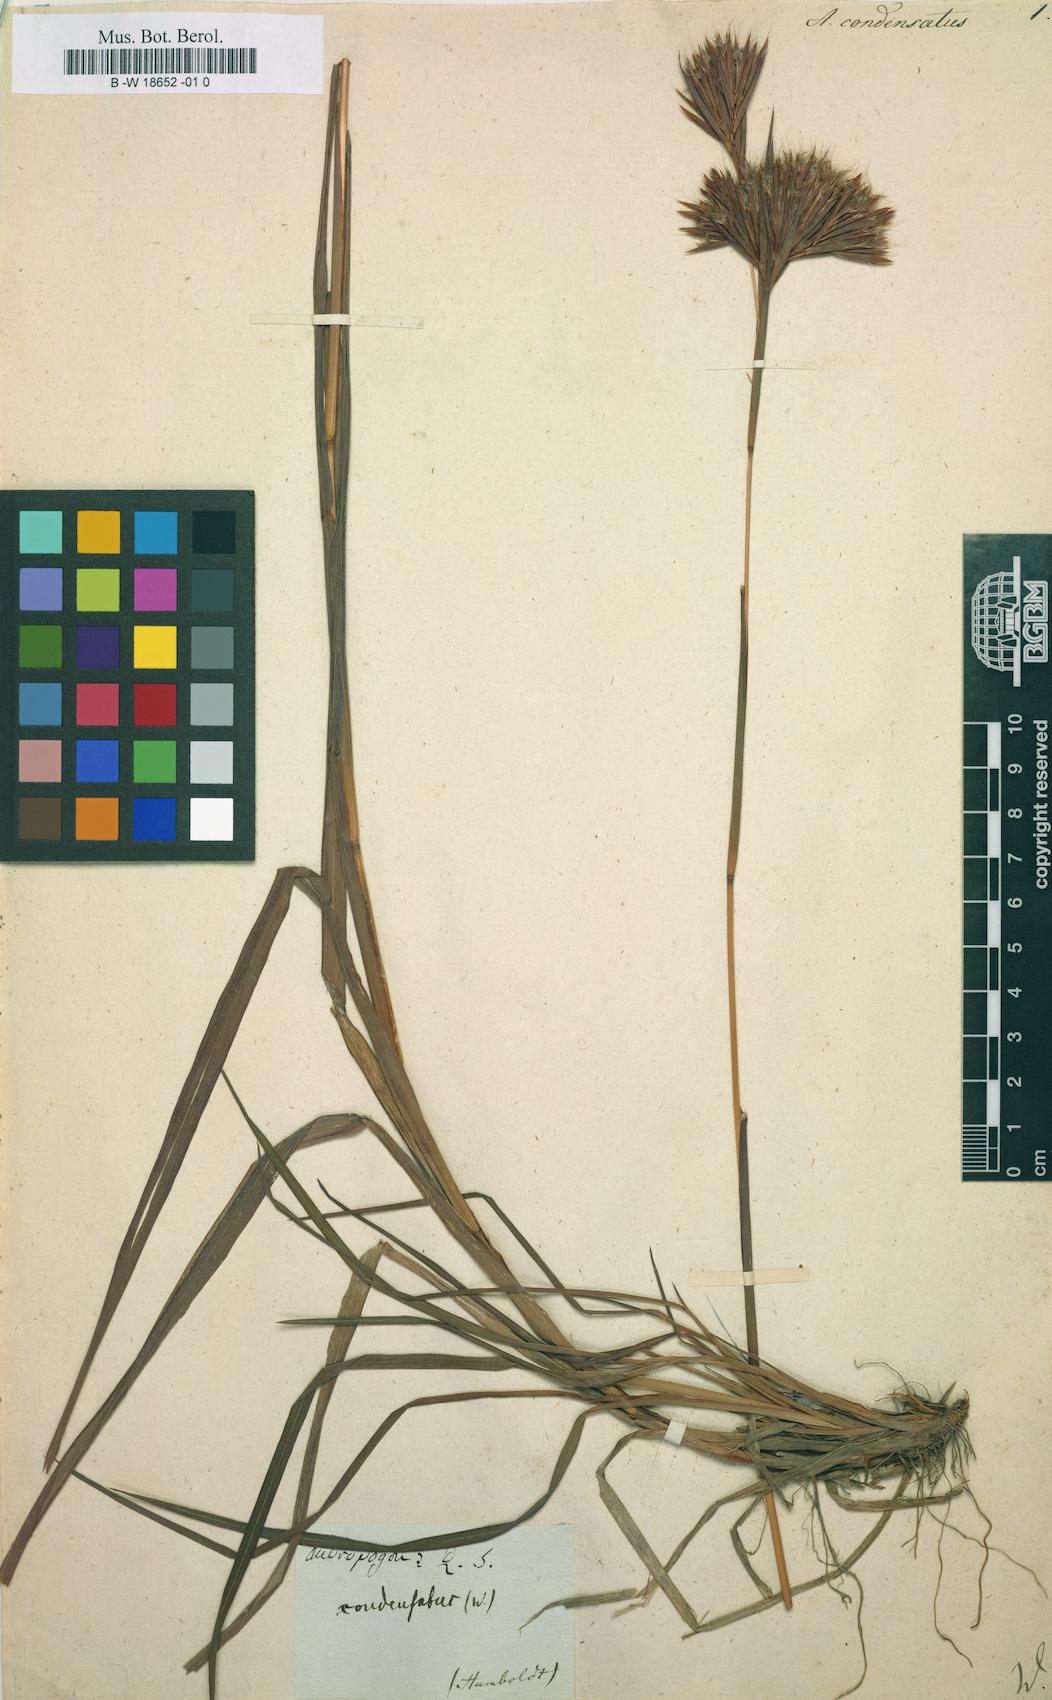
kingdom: Plantae
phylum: Tracheophyta
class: Liliopsida
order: Poales
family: Poaceae
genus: Andropogon
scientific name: Andropogon condensatus
